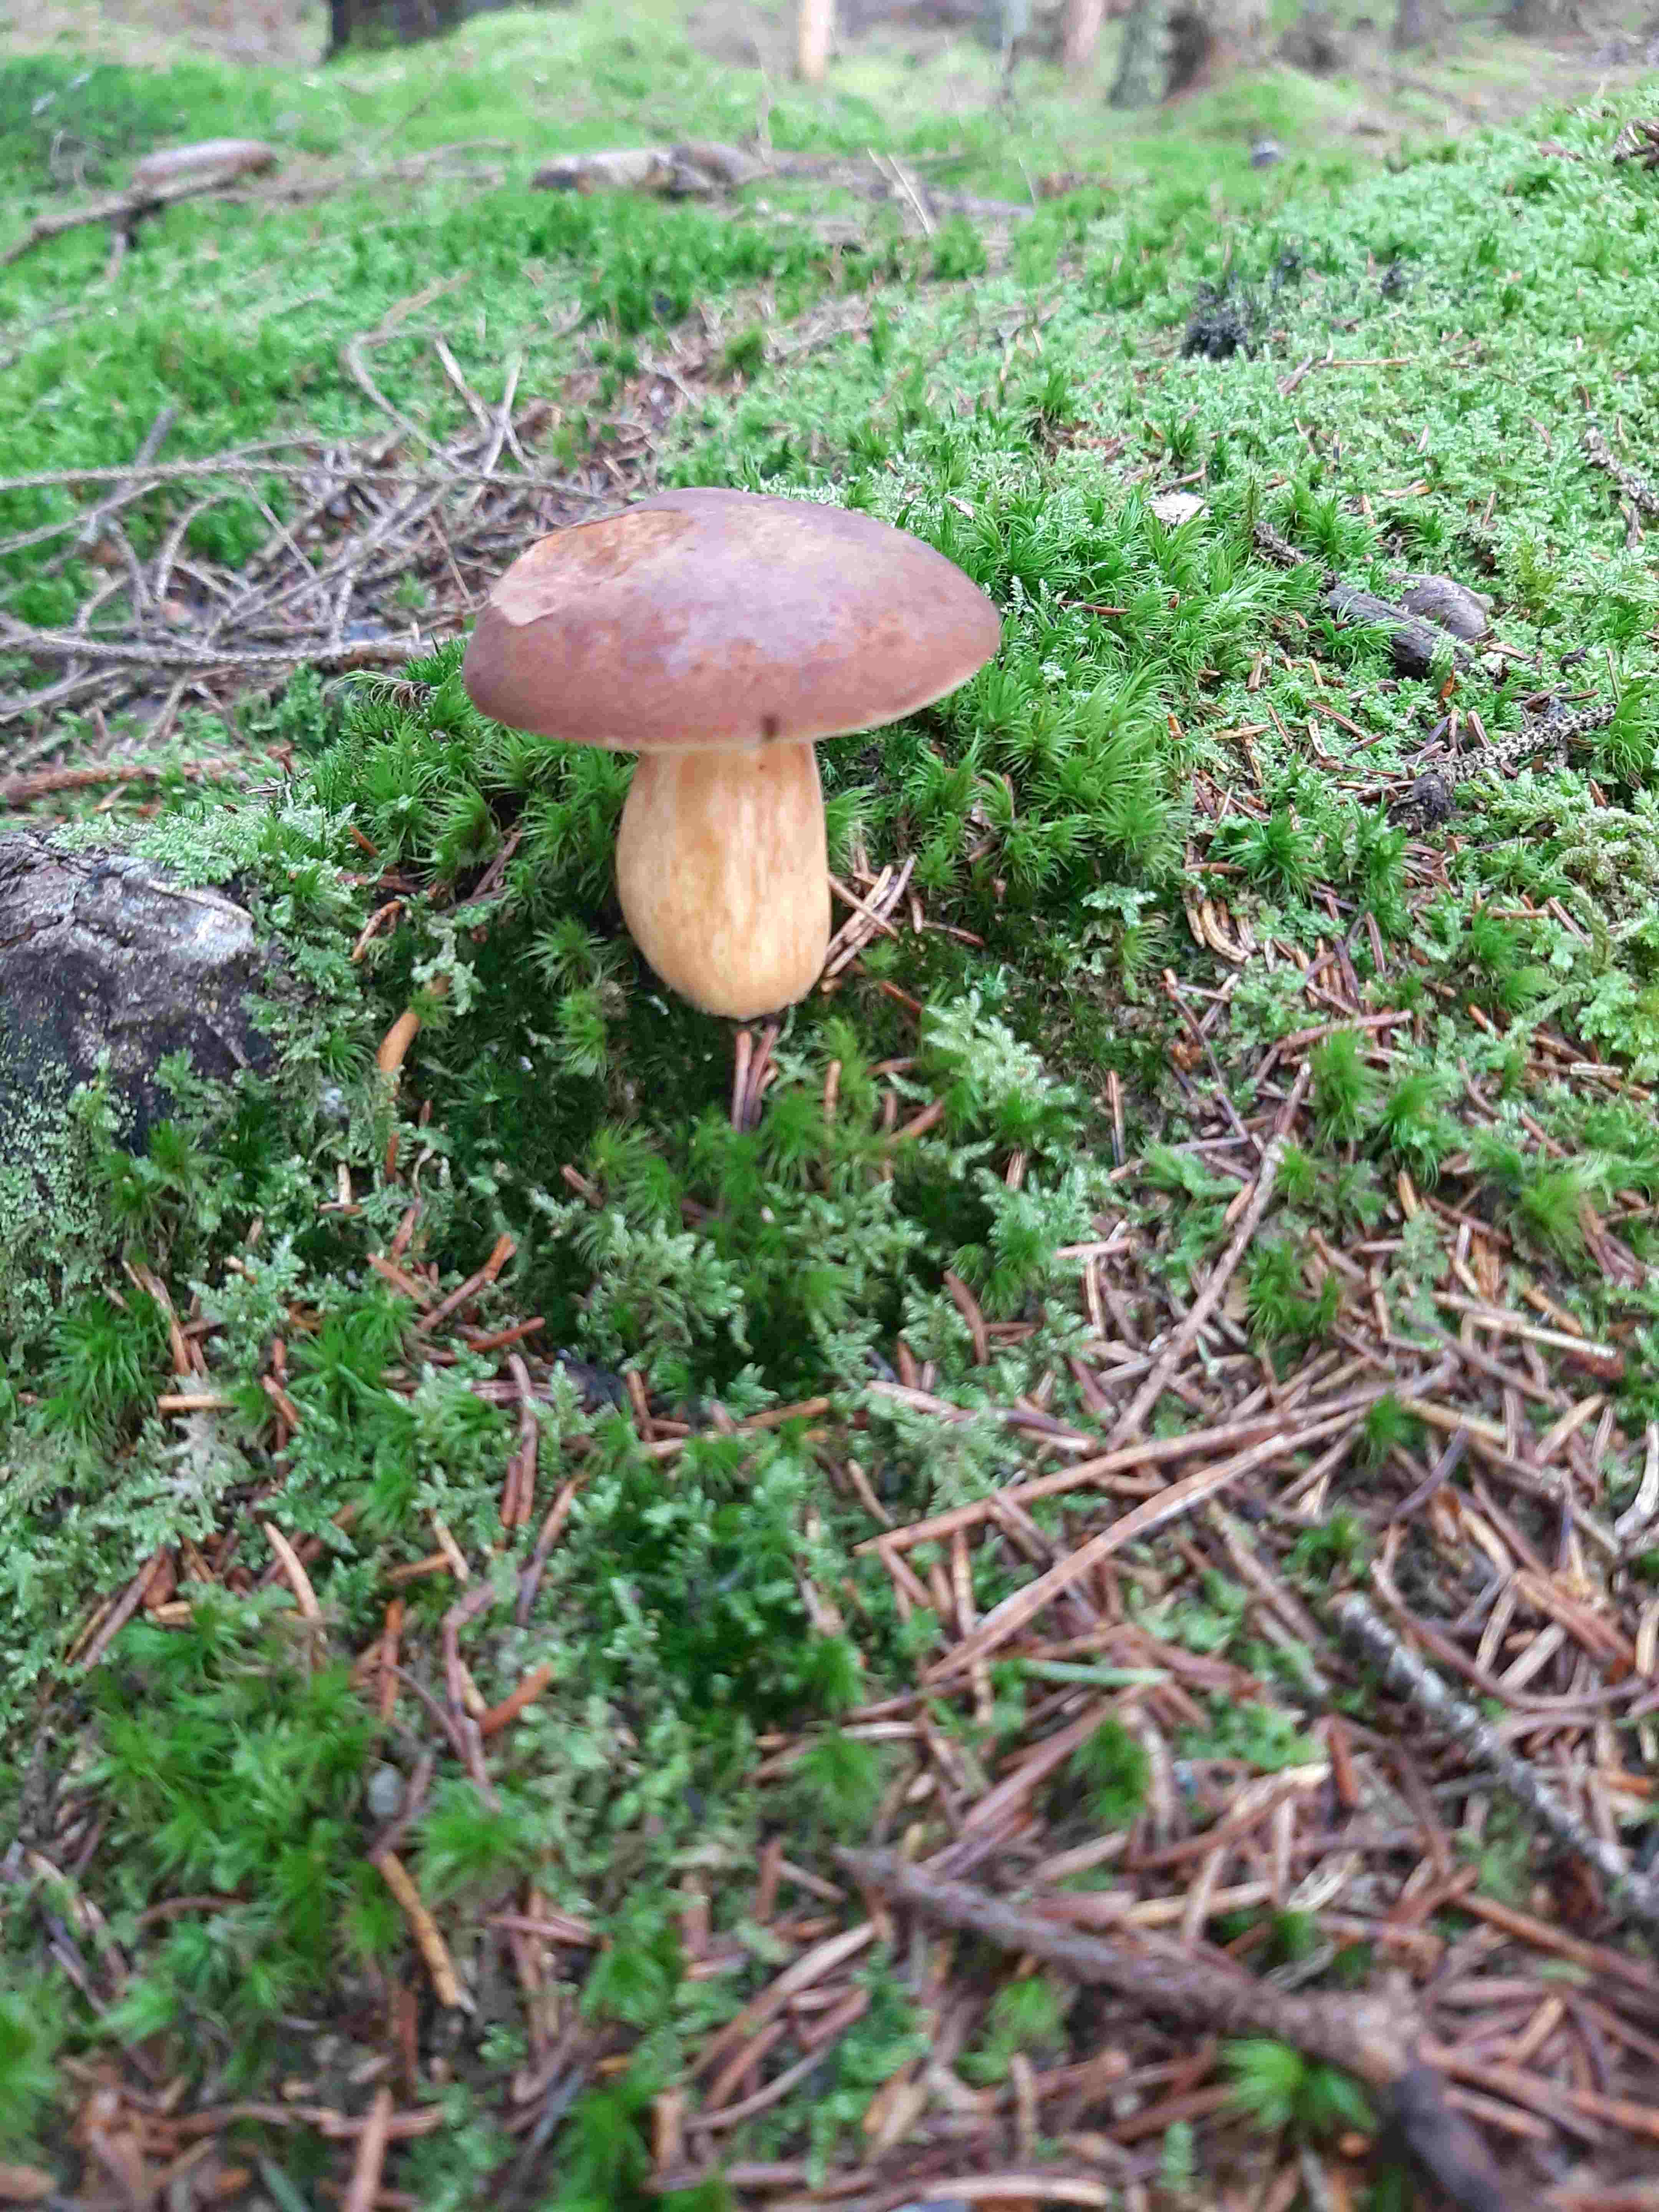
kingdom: Fungi
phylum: Basidiomycota
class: Agaricomycetes
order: Boletales
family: Boletaceae
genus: Imleria
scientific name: Imleria badia
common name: brunstokket rørhat
